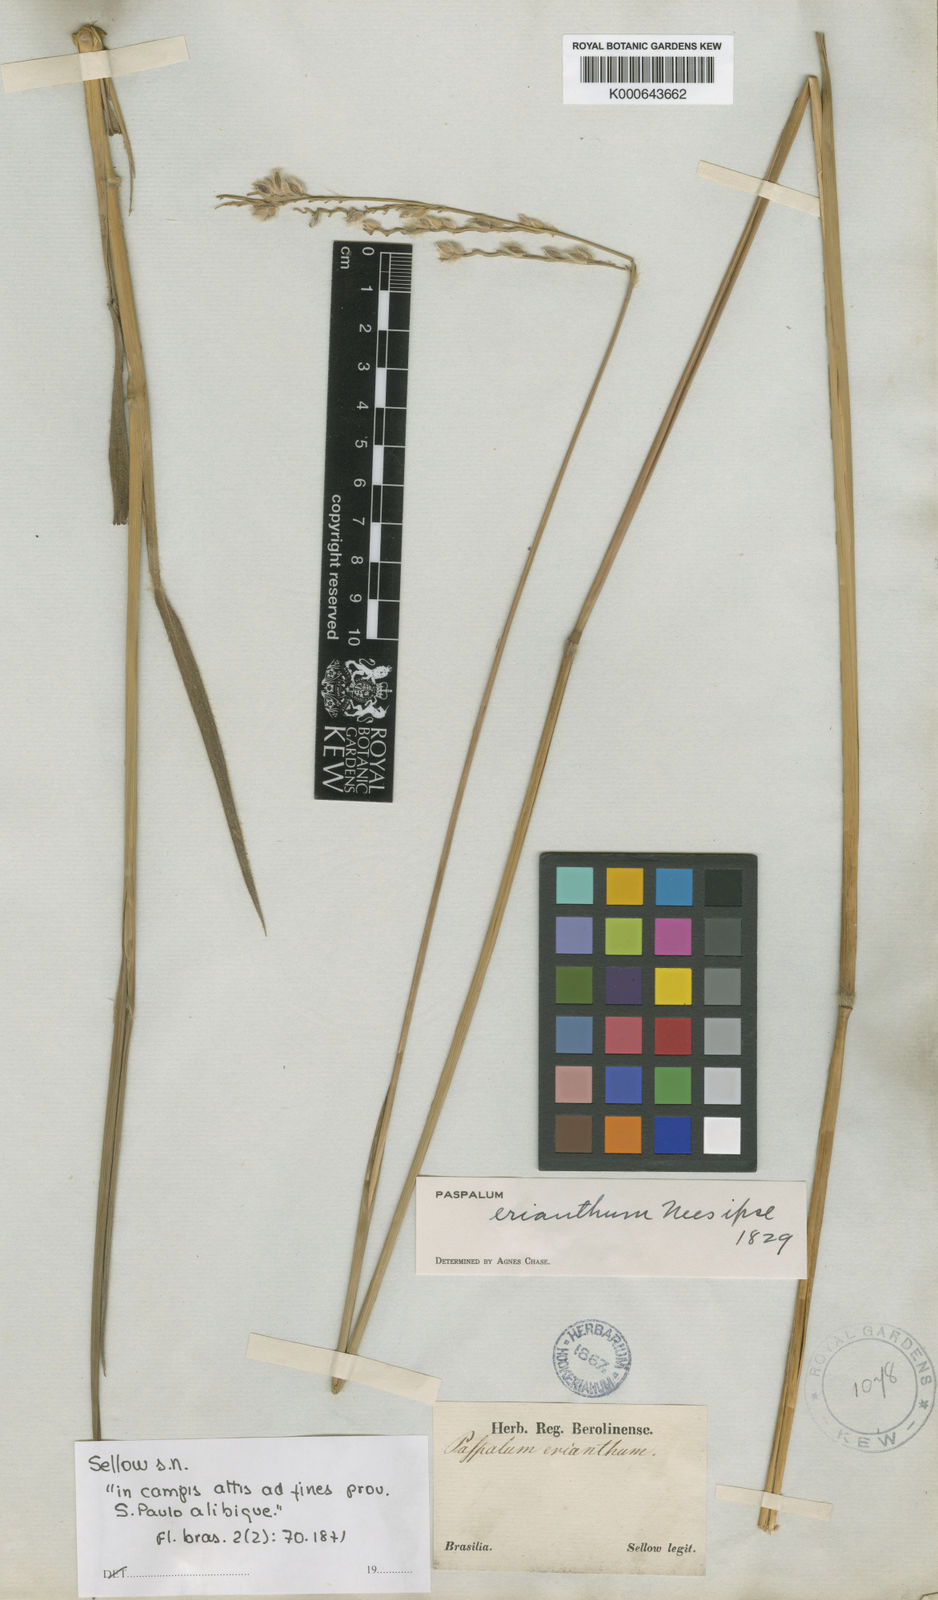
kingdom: Plantae
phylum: Tracheophyta
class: Liliopsida
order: Poales
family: Poaceae
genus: Paspalum
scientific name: Paspalum erianthum
